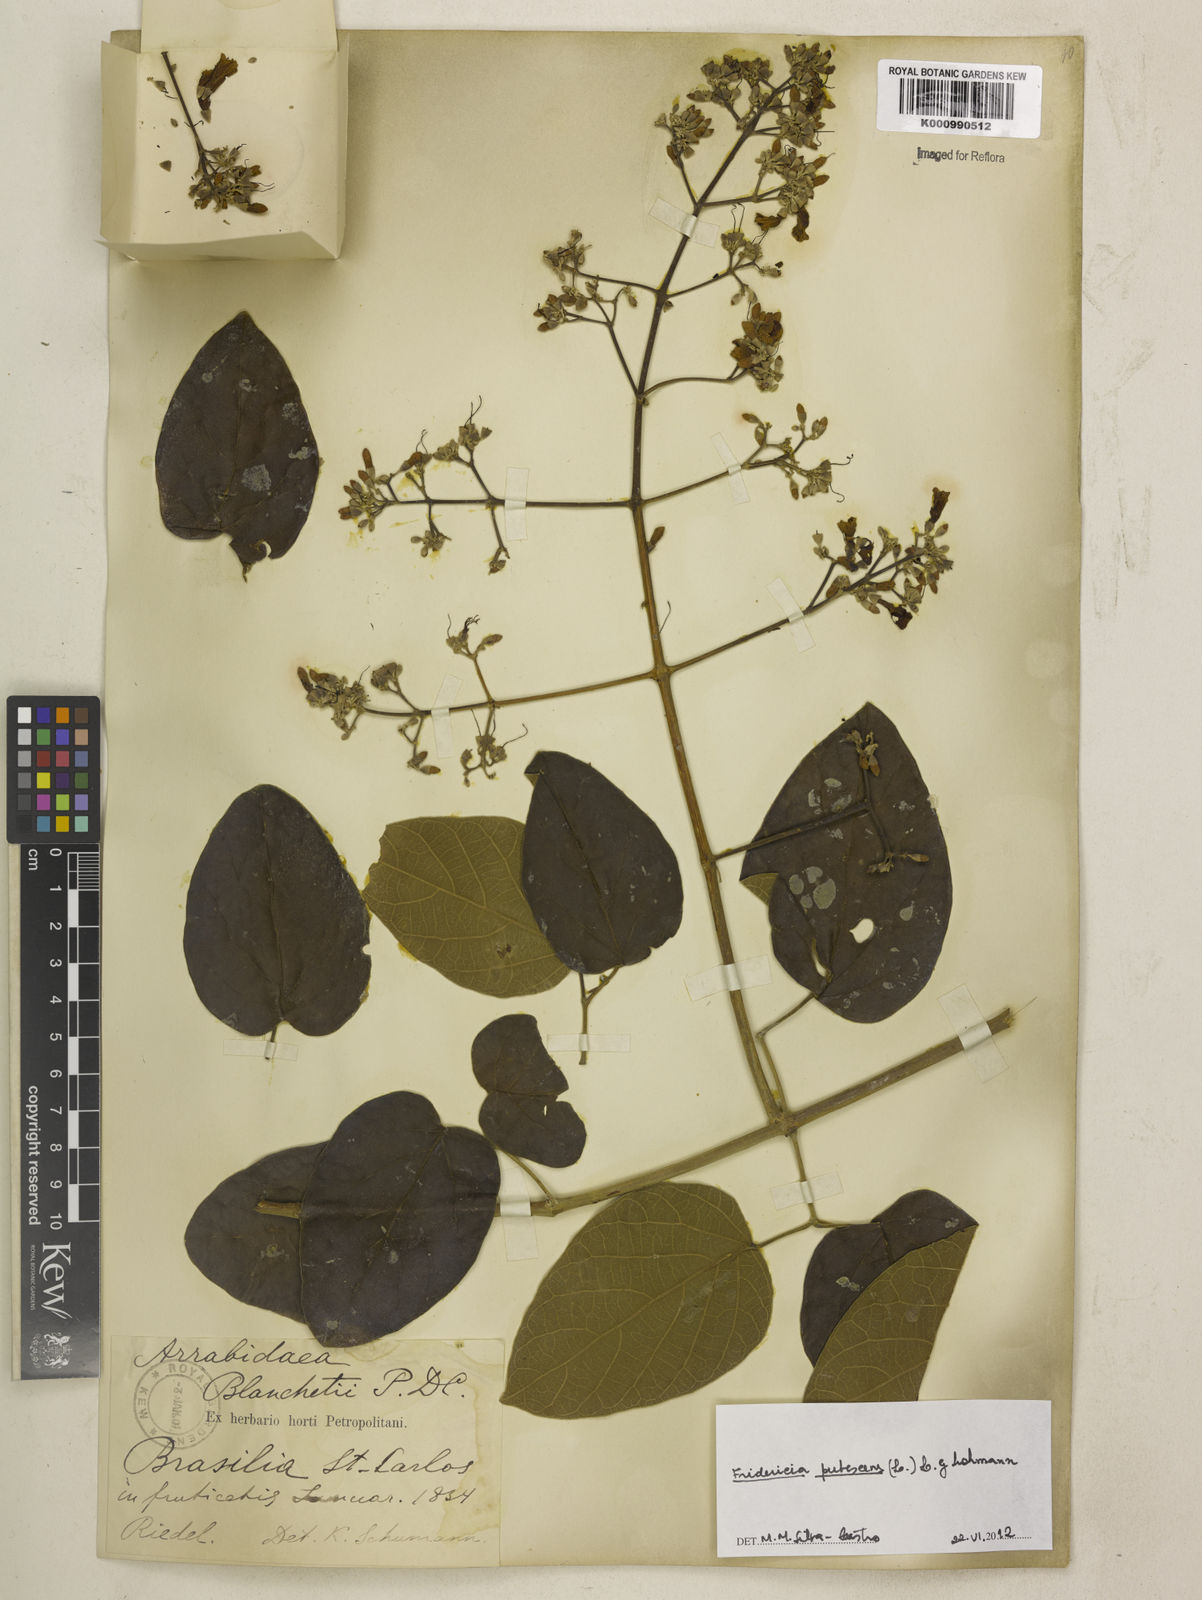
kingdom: Plantae
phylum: Tracheophyta
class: Magnoliopsida
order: Lamiales
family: Bignoniaceae
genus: Fridericia
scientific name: Fridericia pubescens
